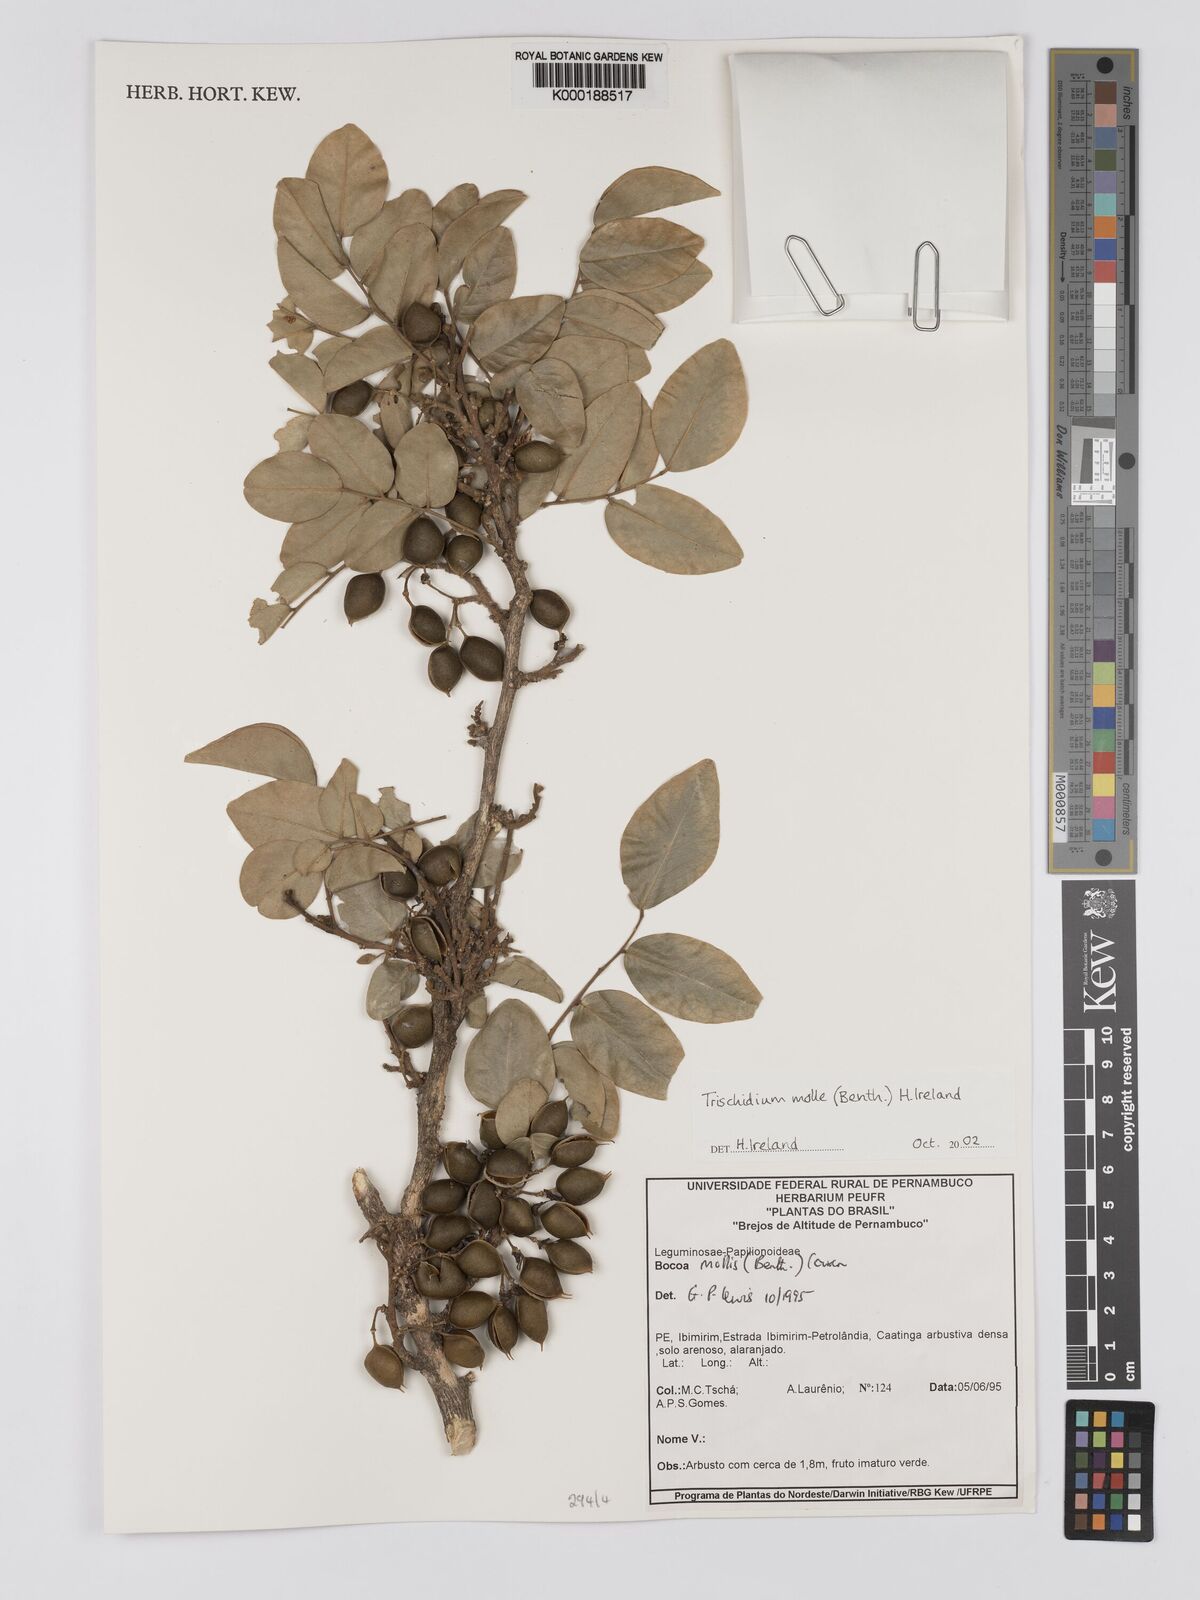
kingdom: Plantae
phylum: Tracheophyta
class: Magnoliopsida
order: Fabales
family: Fabaceae
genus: Trischidium
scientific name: Trischidium
